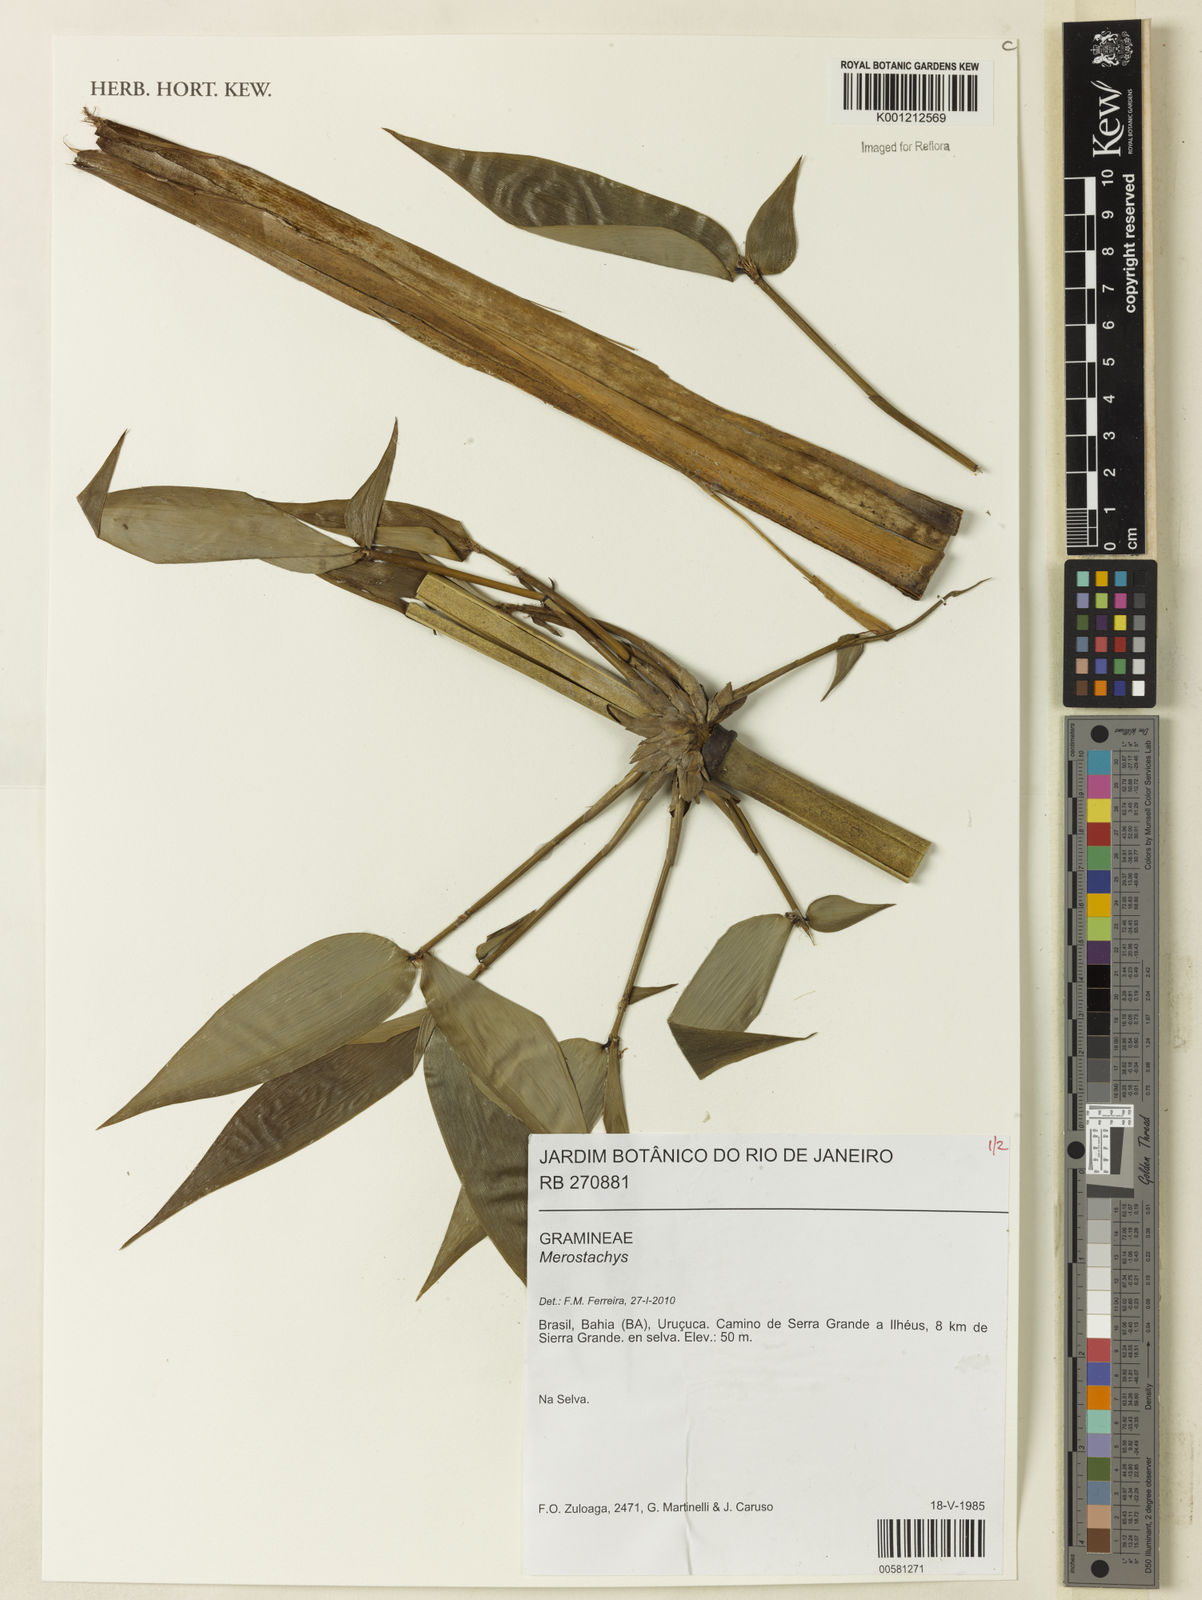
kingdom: Plantae
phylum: Tracheophyta
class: Liliopsida
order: Poales
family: Poaceae
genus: Merostachys
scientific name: Merostachys
